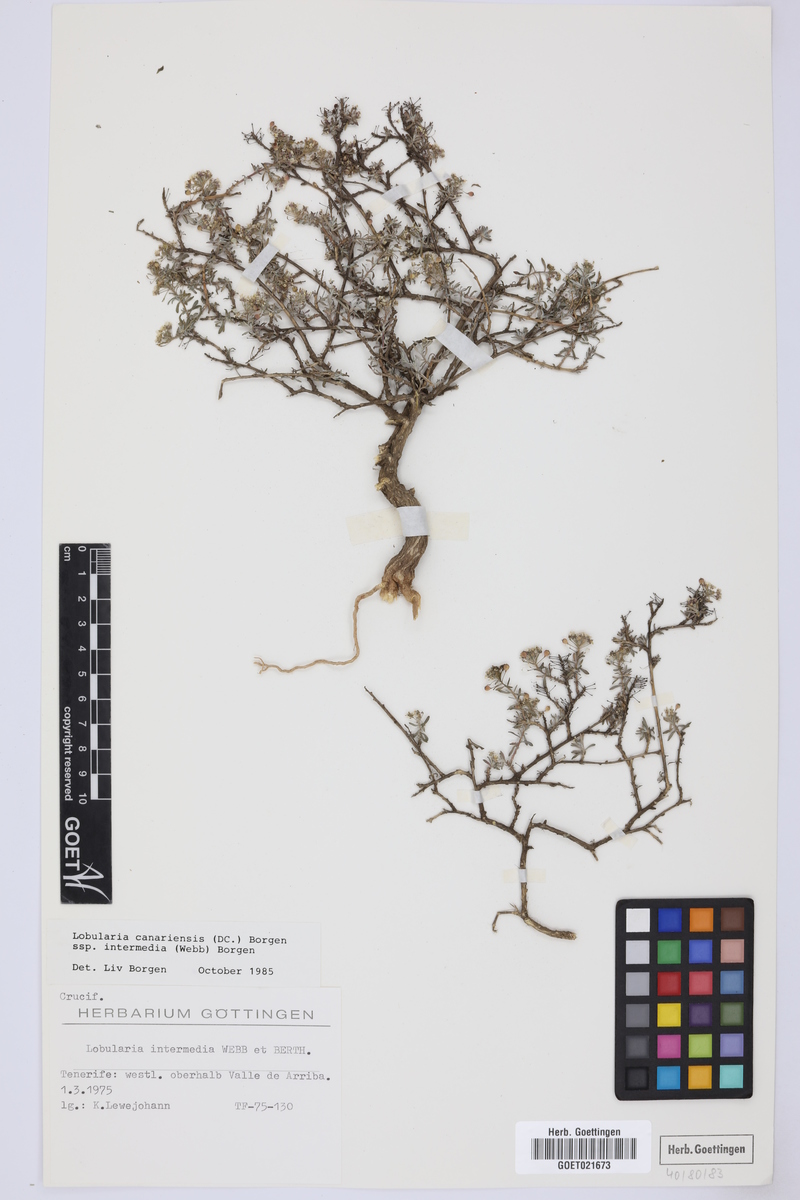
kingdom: Plantae
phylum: Tracheophyta
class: Magnoliopsida
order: Brassicales
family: Brassicaceae
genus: Lobularia
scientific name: Lobularia canariensis
